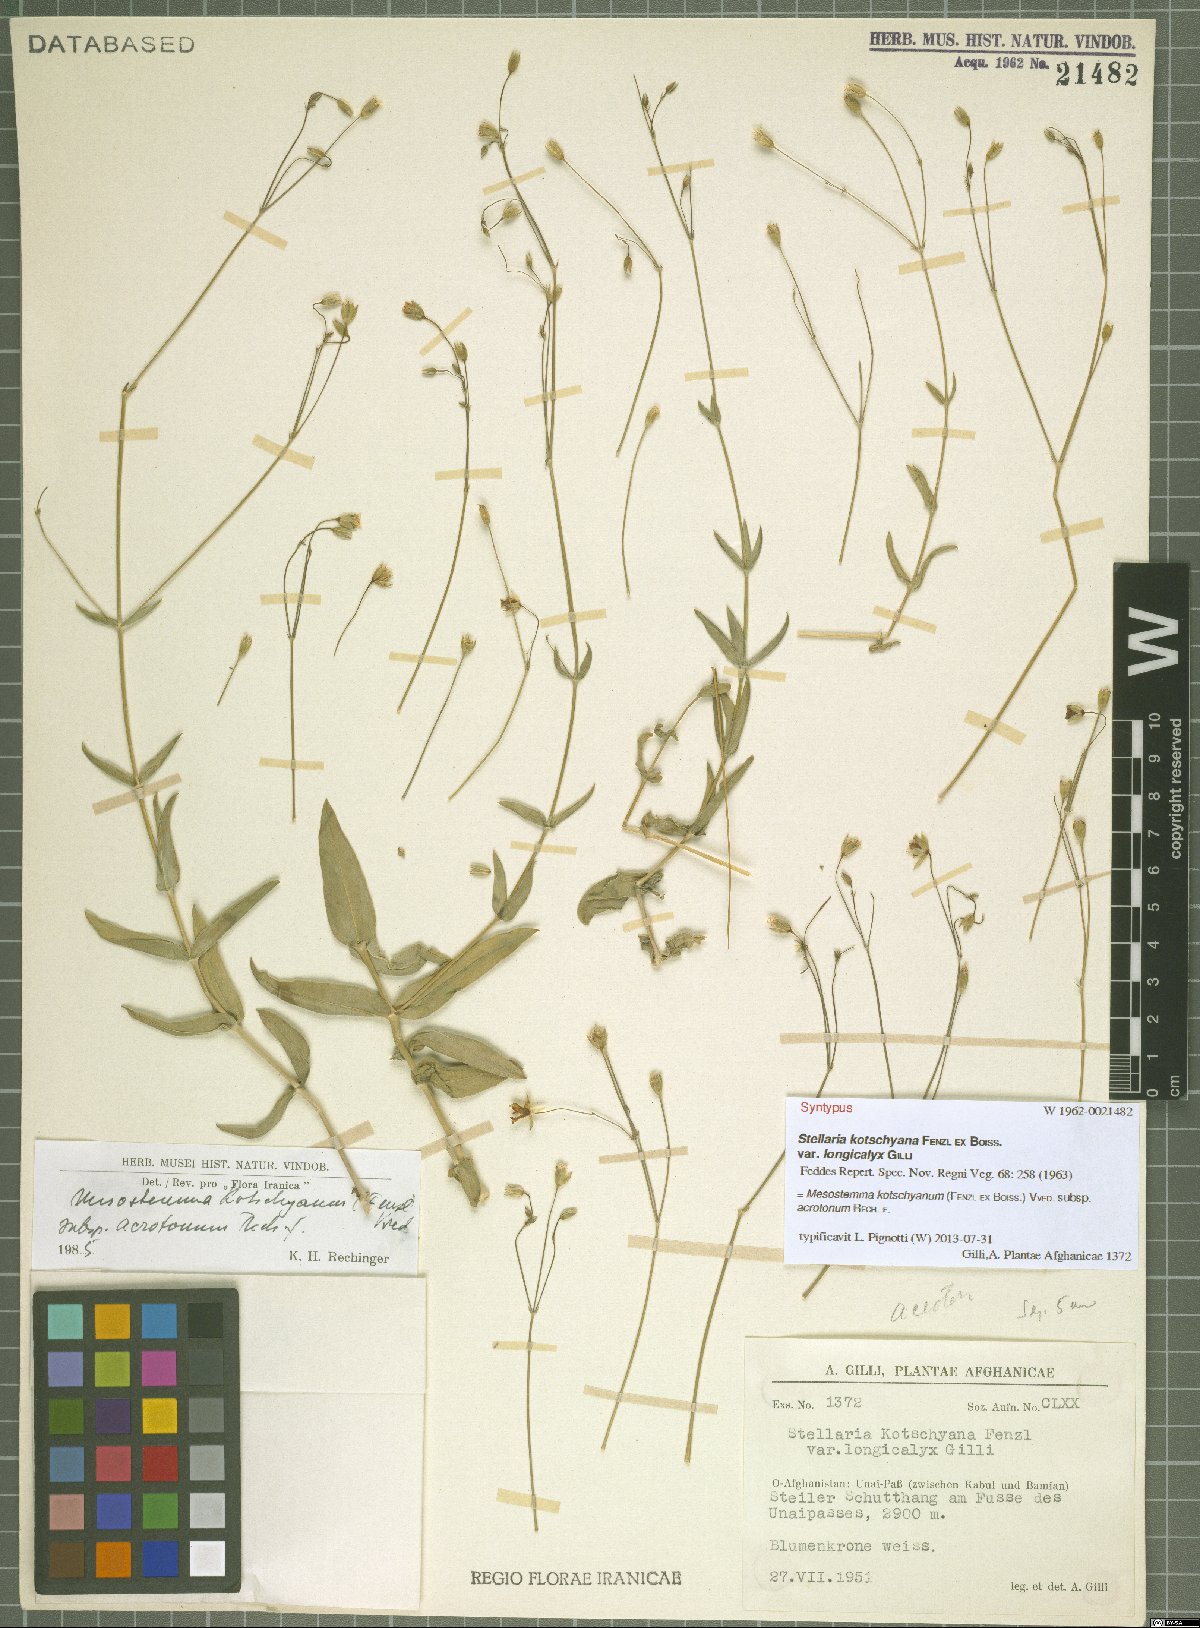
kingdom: Plantae
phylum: Tracheophyta
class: Magnoliopsida
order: Caryophyllales
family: Caryophyllaceae
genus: Mesostemma
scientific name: Mesostemma kotschyanum
